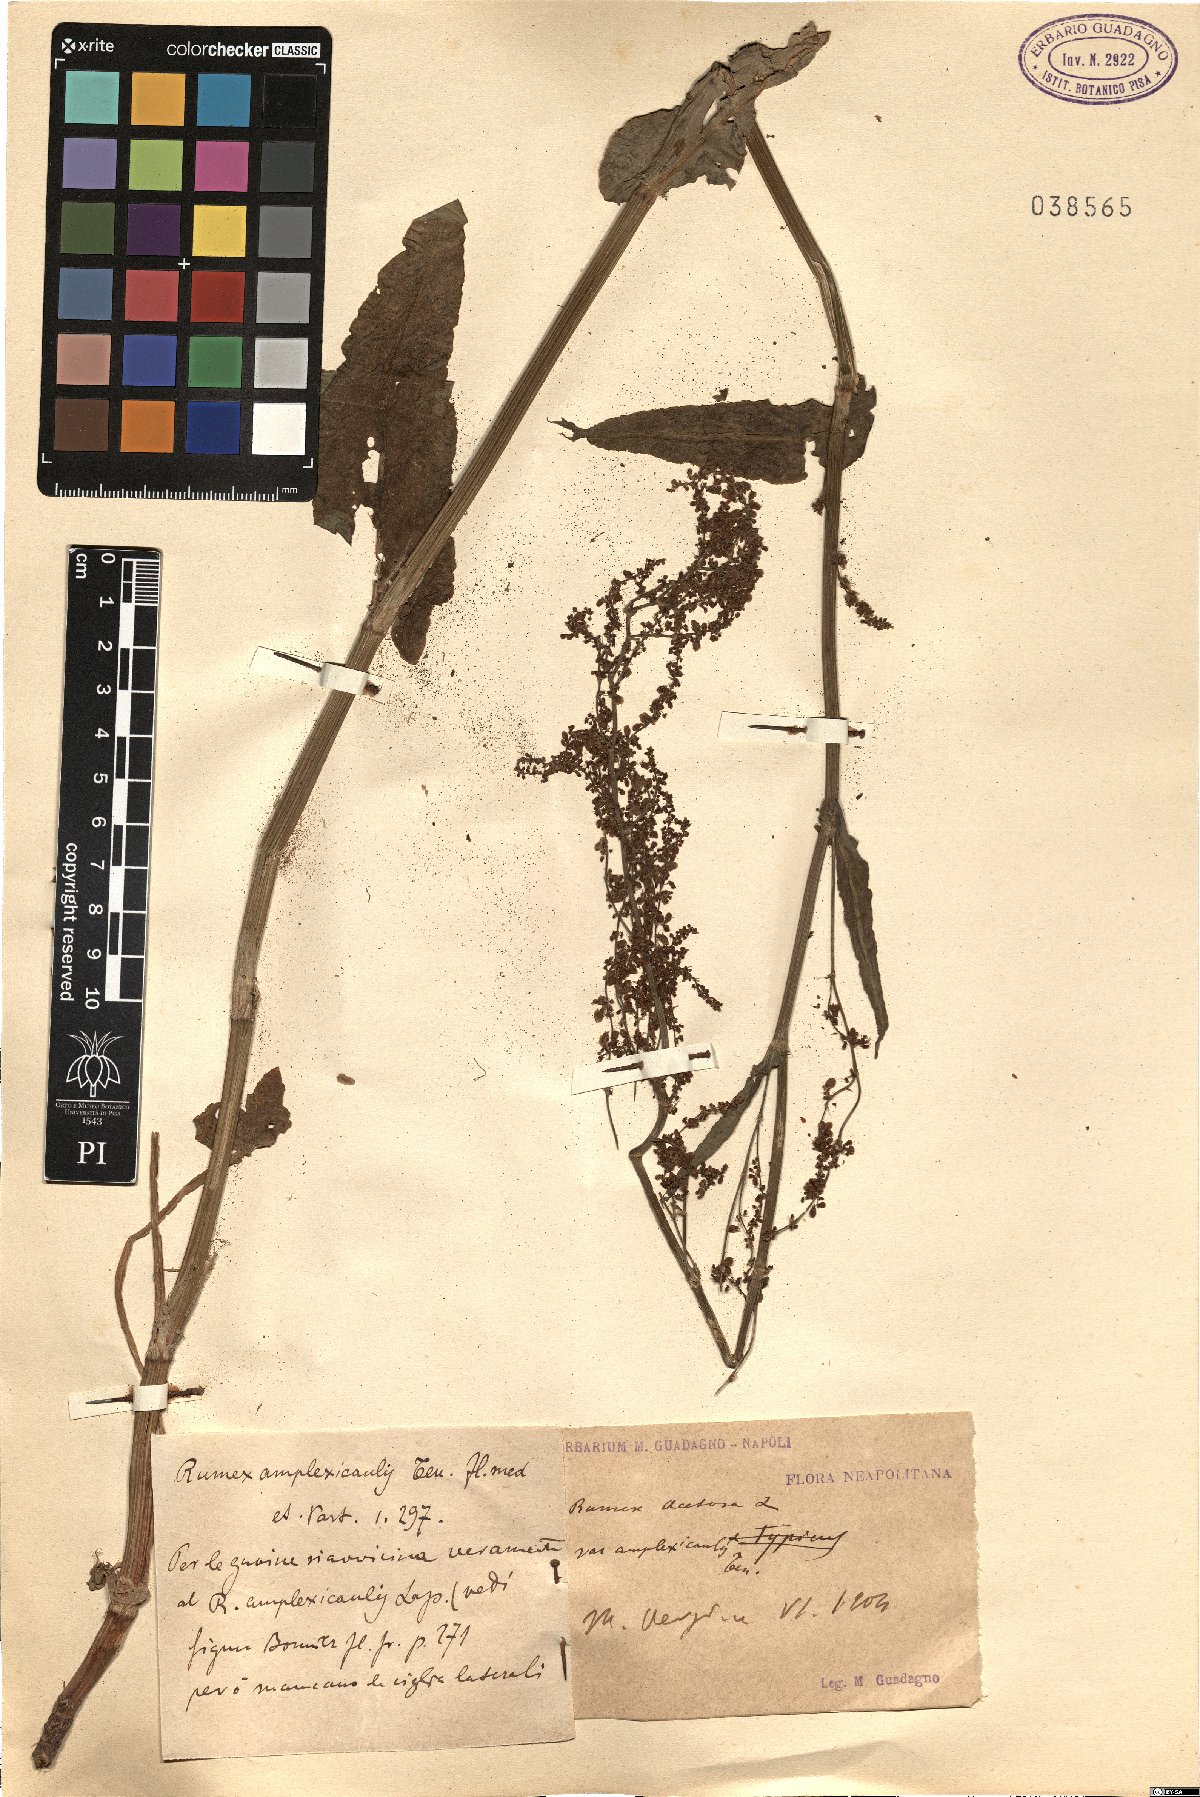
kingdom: Plantae
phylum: Tracheophyta
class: Magnoliopsida
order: Caryophyllales
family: Polygonaceae
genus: Rumex
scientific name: Rumex arifolius
